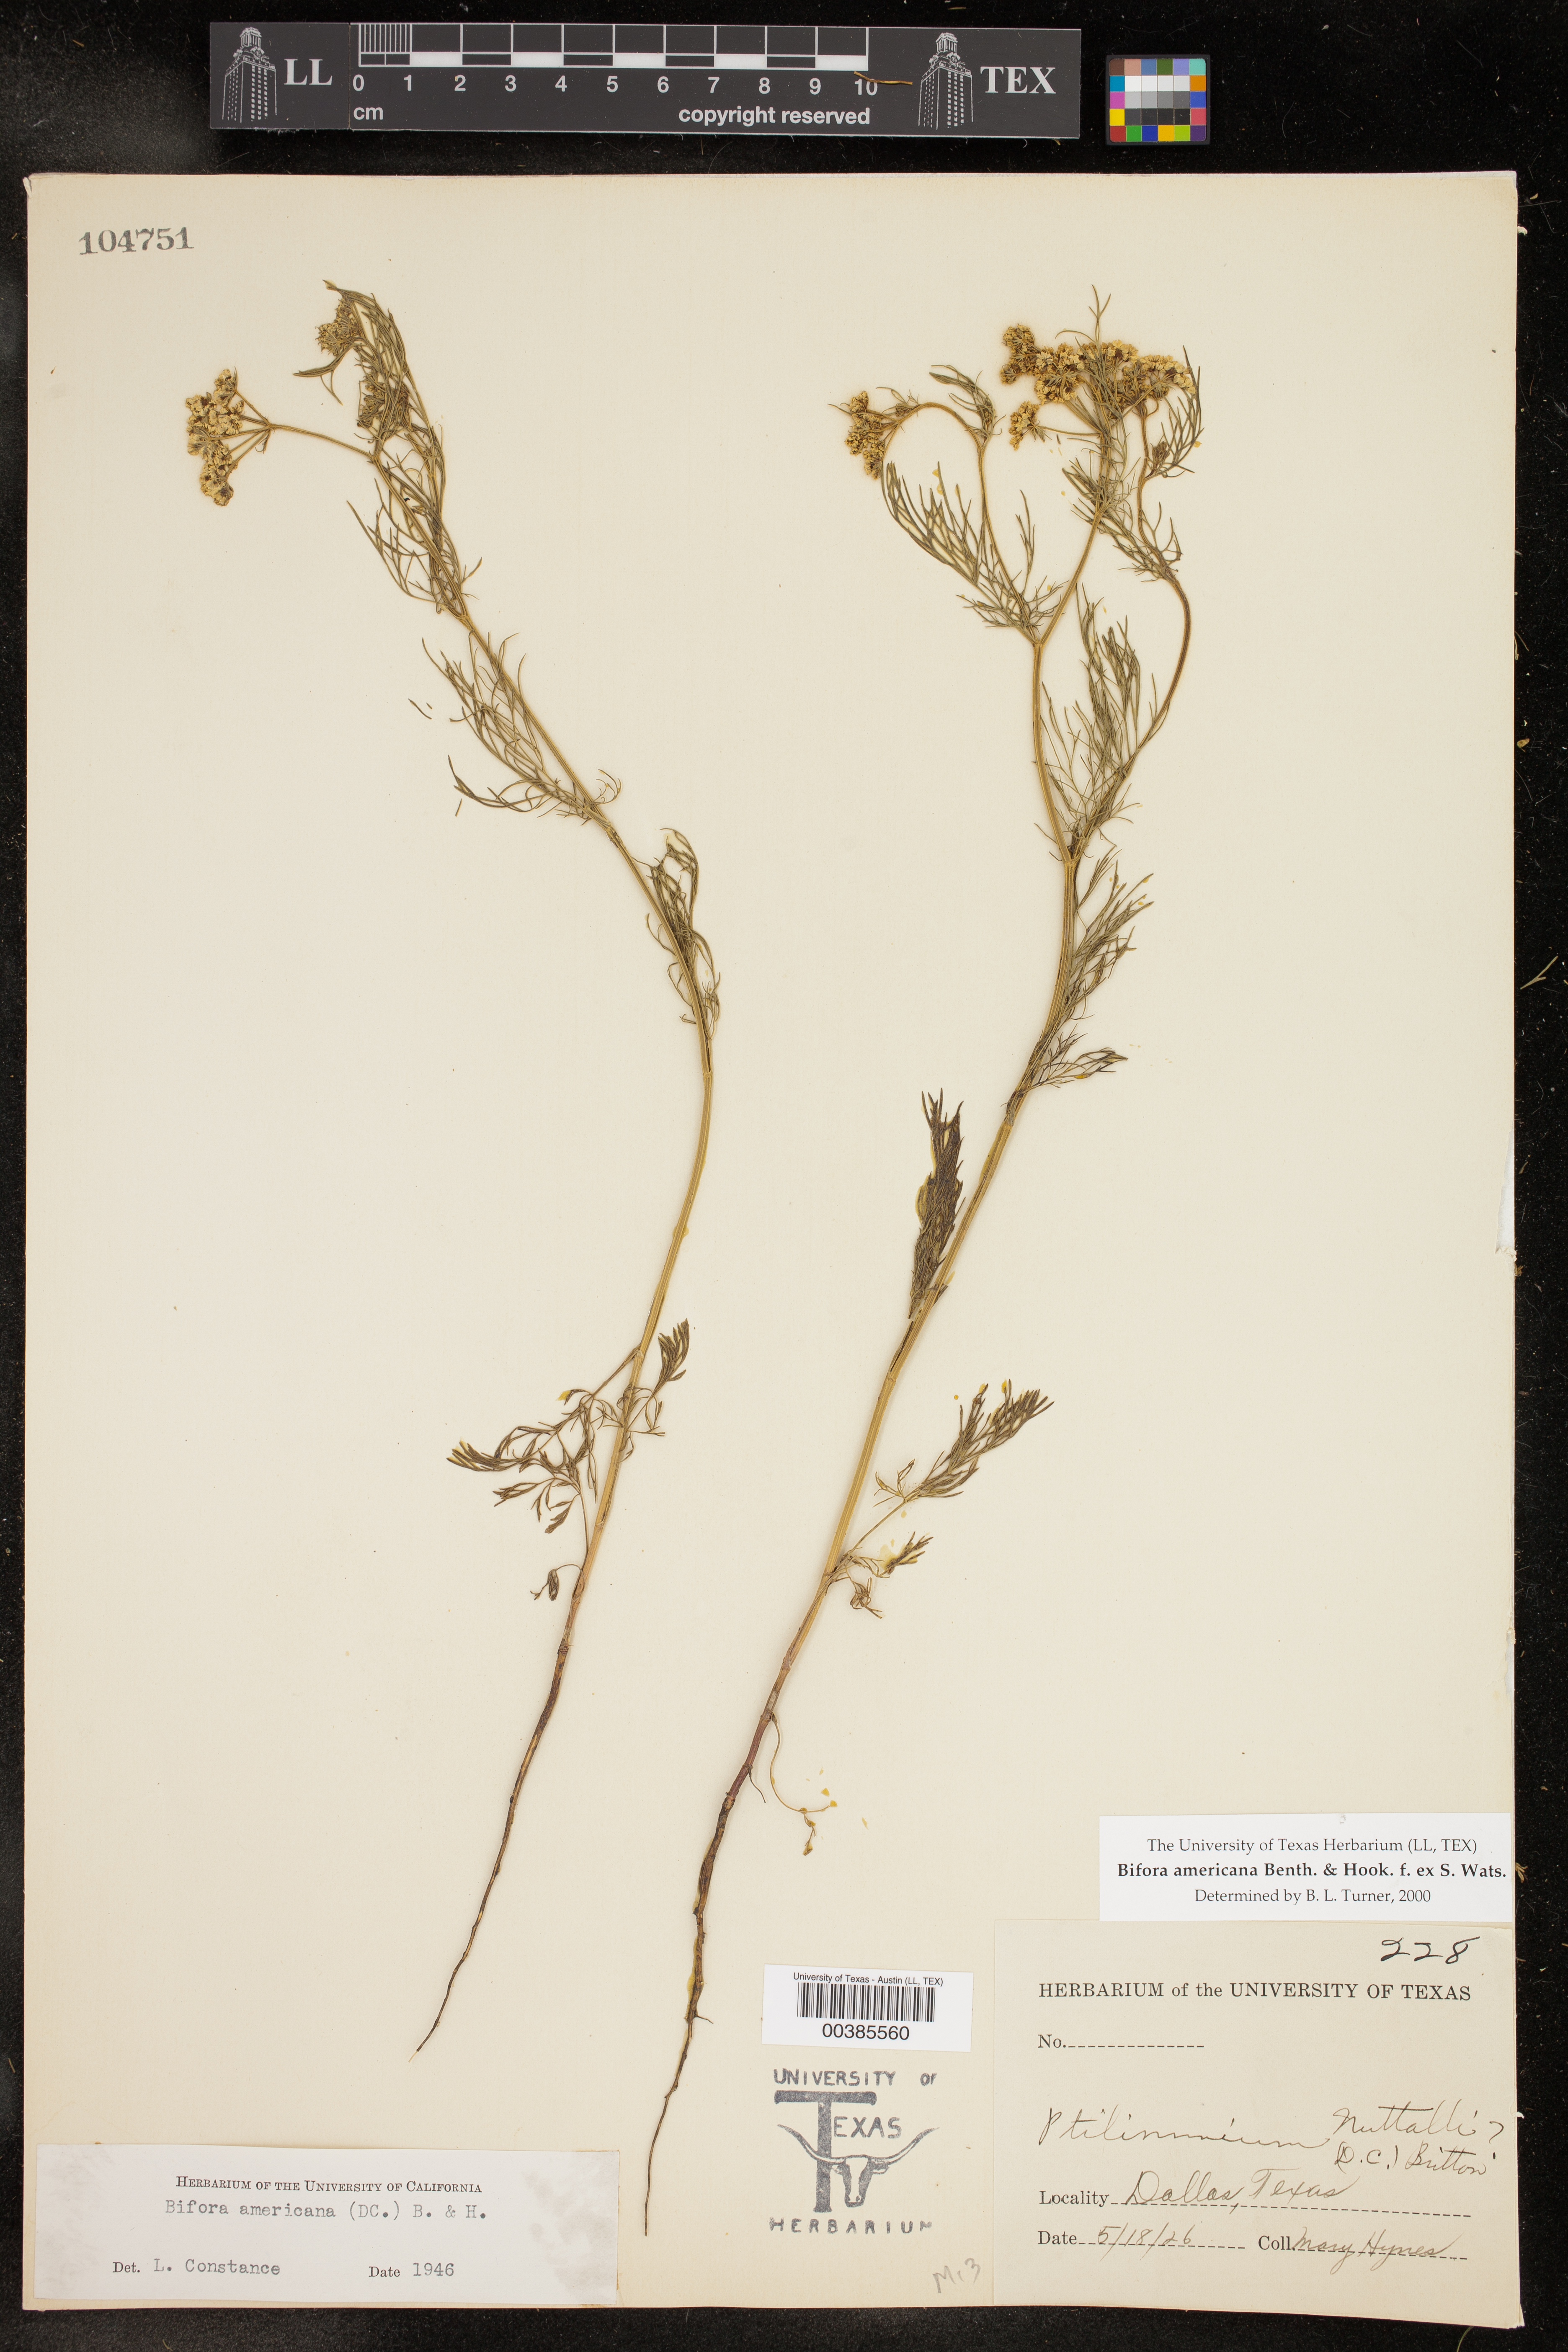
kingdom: Plantae
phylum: Tracheophyta
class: Magnoliopsida
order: Apiales
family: Apiaceae
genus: Atrema
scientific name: Atrema americanum
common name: Prairie-bishop
